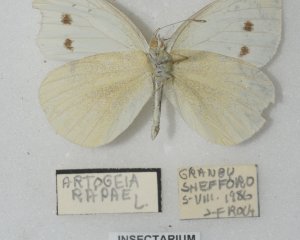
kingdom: Animalia
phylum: Arthropoda
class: Insecta
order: Lepidoptera
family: Pieridae
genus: Pieris
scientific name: Pieris rapae
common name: Cabbage White
